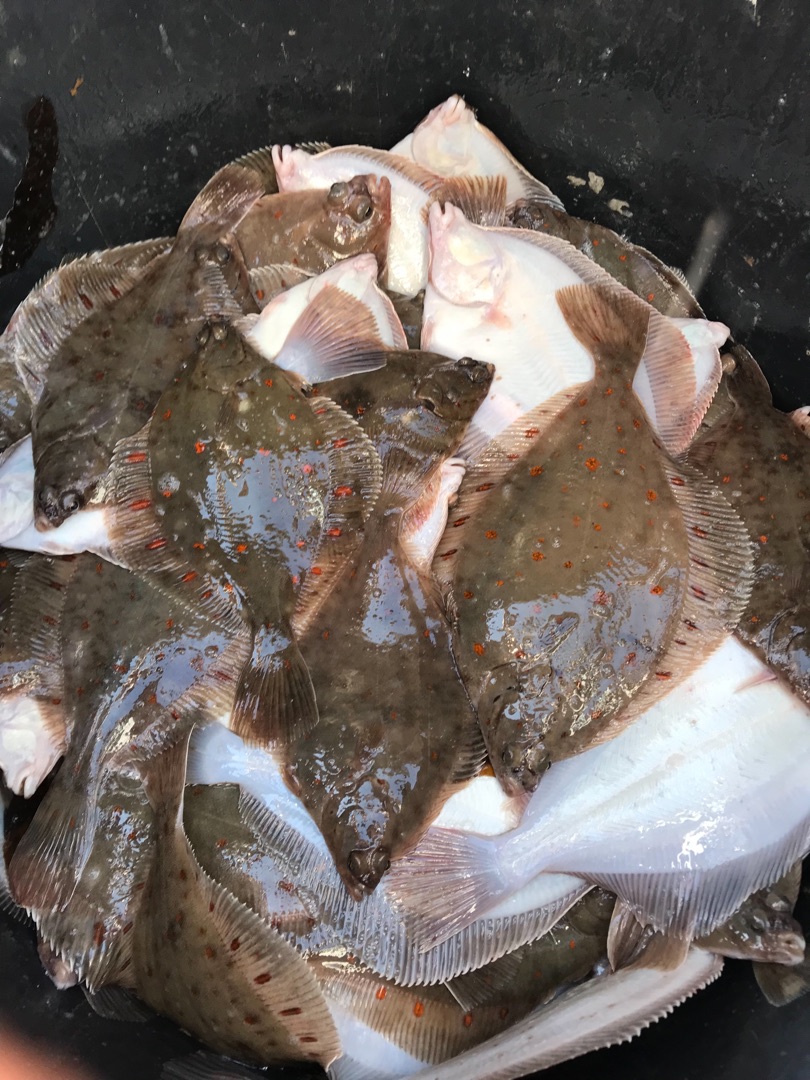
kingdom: Animalia
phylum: Chordata
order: Pleuronectiformes
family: Pleuronectidae
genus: Pleuronectes
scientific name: Pleuronectes platessa
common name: Rødspætte
